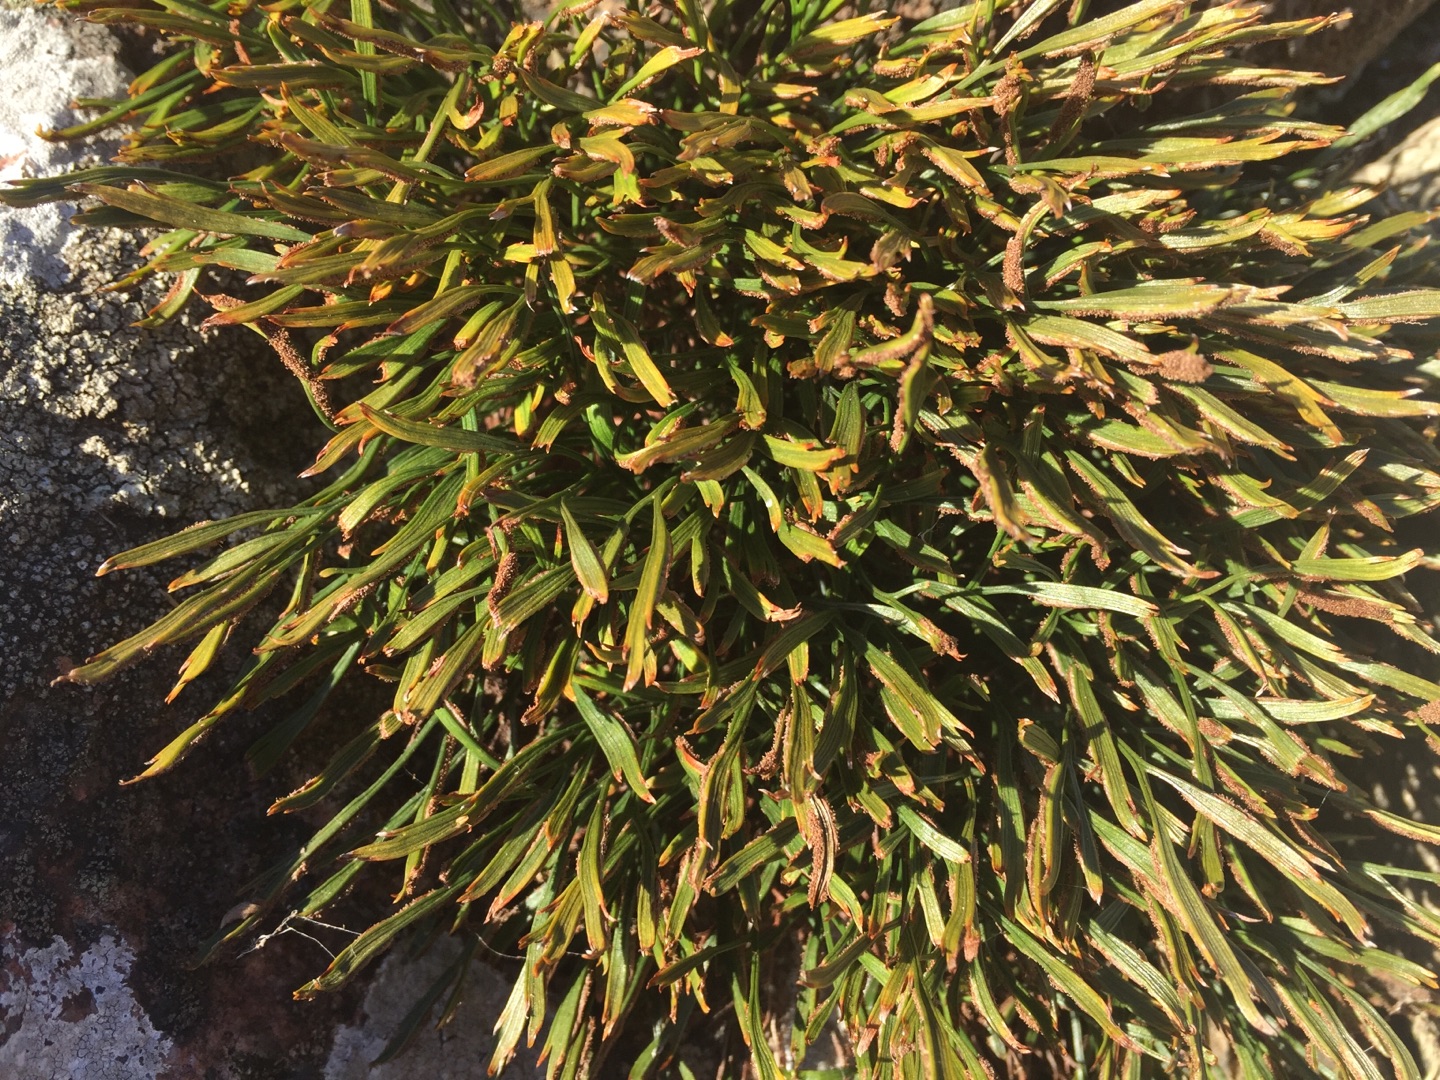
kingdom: Plantae
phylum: Tracheophyta
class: Polypodiopsida
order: Polypodiales
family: Aspleniaceae
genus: Asplenium
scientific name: Asplenium septentrionale
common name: Nordisk radeløv
